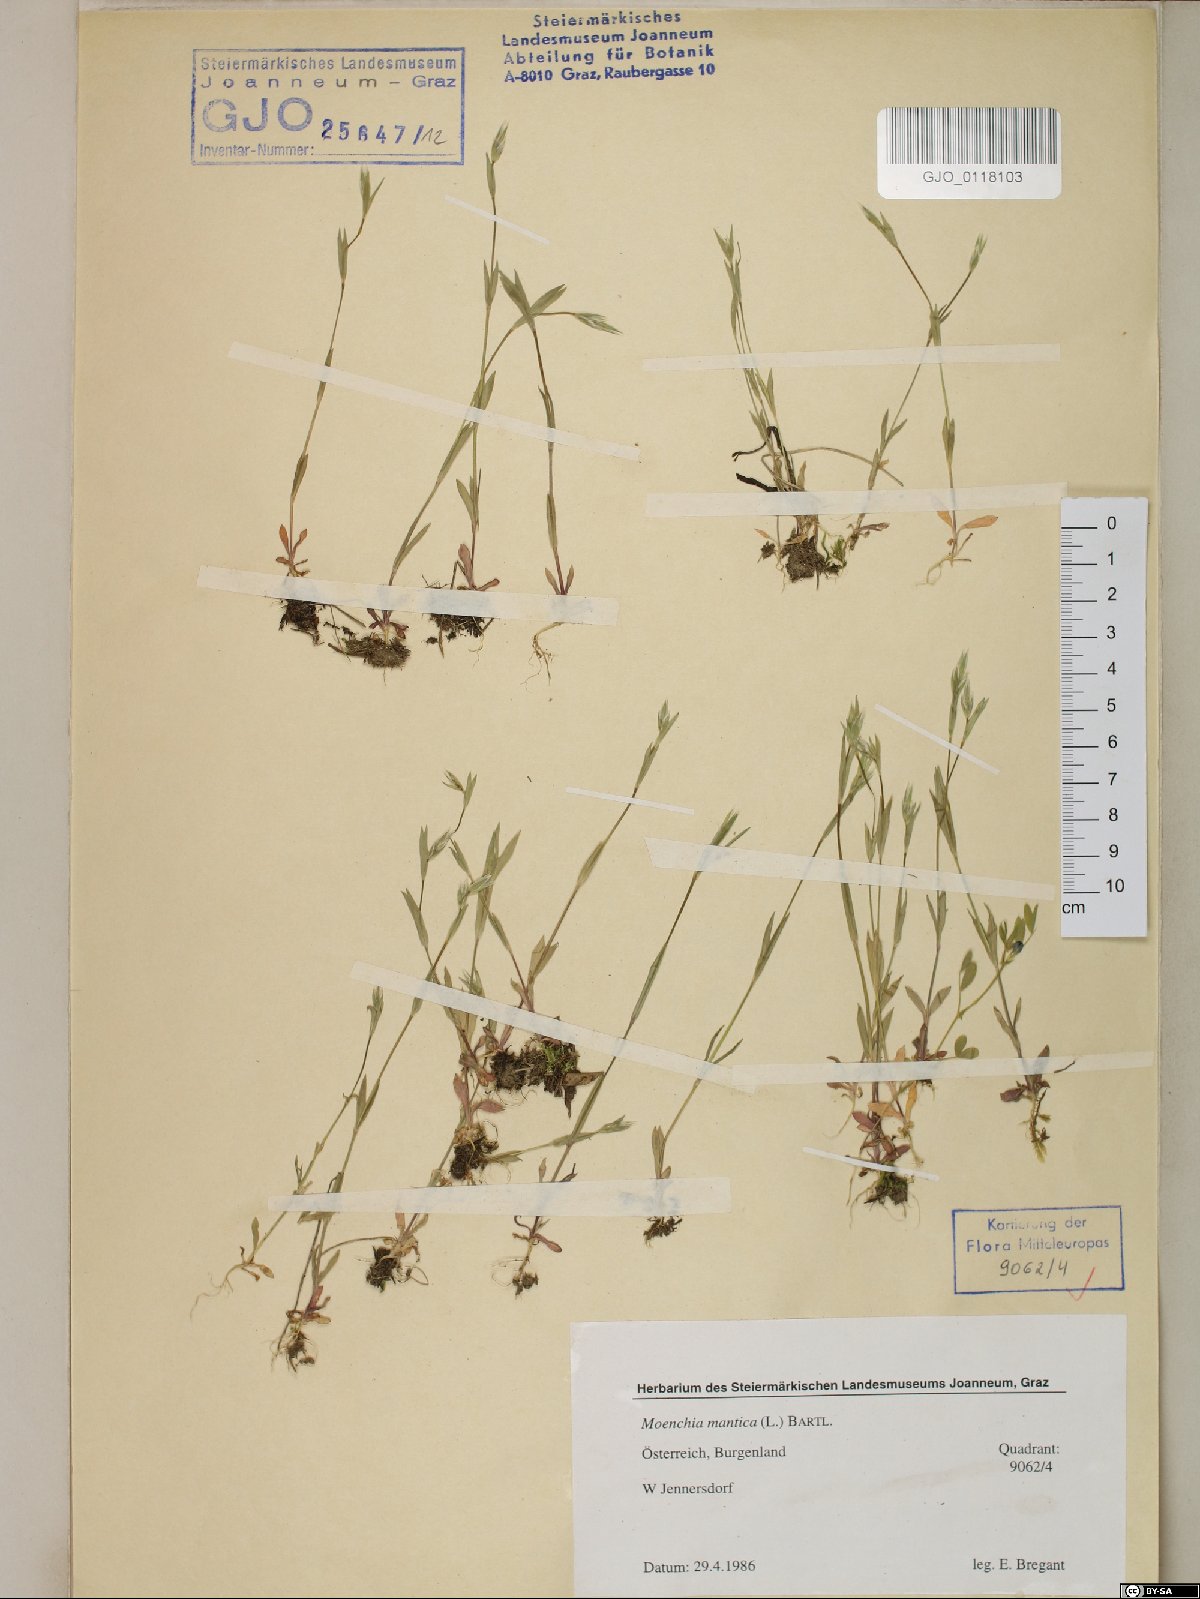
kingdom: Plantae
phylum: Tracheophyta
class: Magnoliopsida
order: Caryophyllales
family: Caryophyllaceae
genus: Moenchia
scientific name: Moenchia mantica
